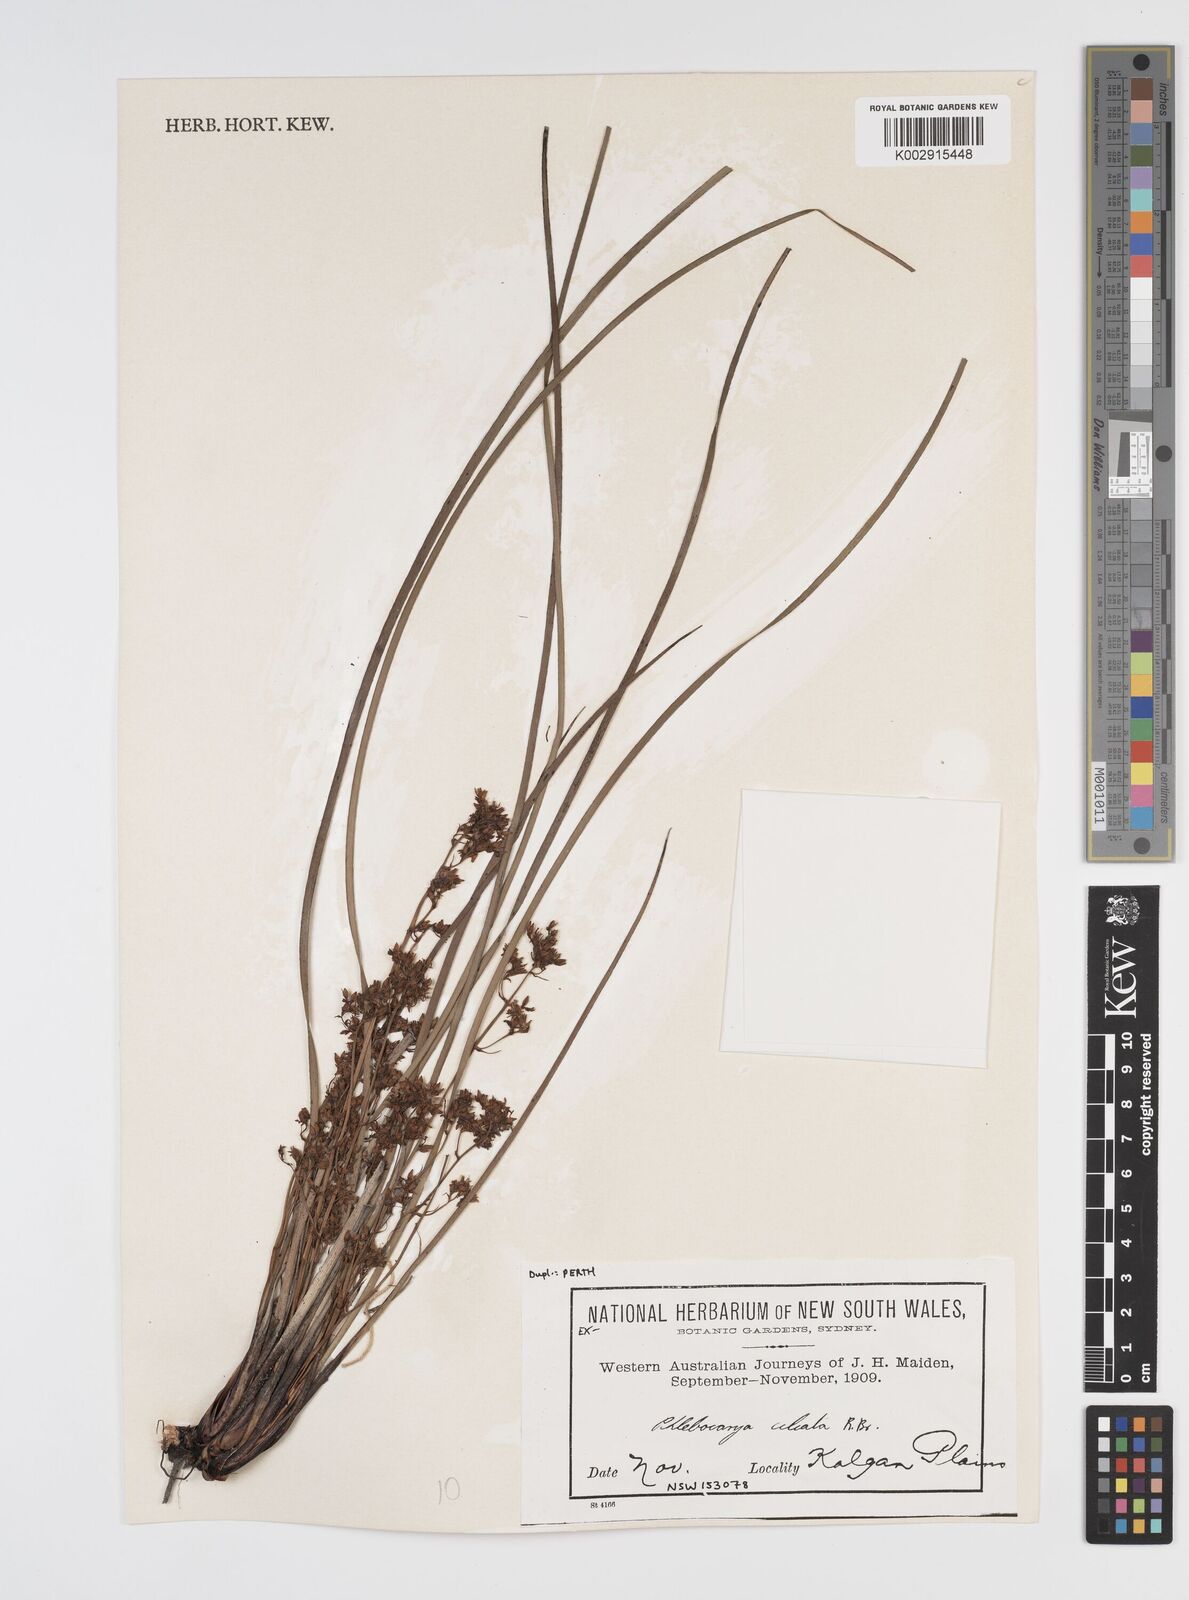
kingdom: Plantae
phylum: Tracheophyta
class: Liliopsida
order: Commelinales
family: Haemodoraceae
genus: Phlebocarya
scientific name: Phlebocarya ciliata
